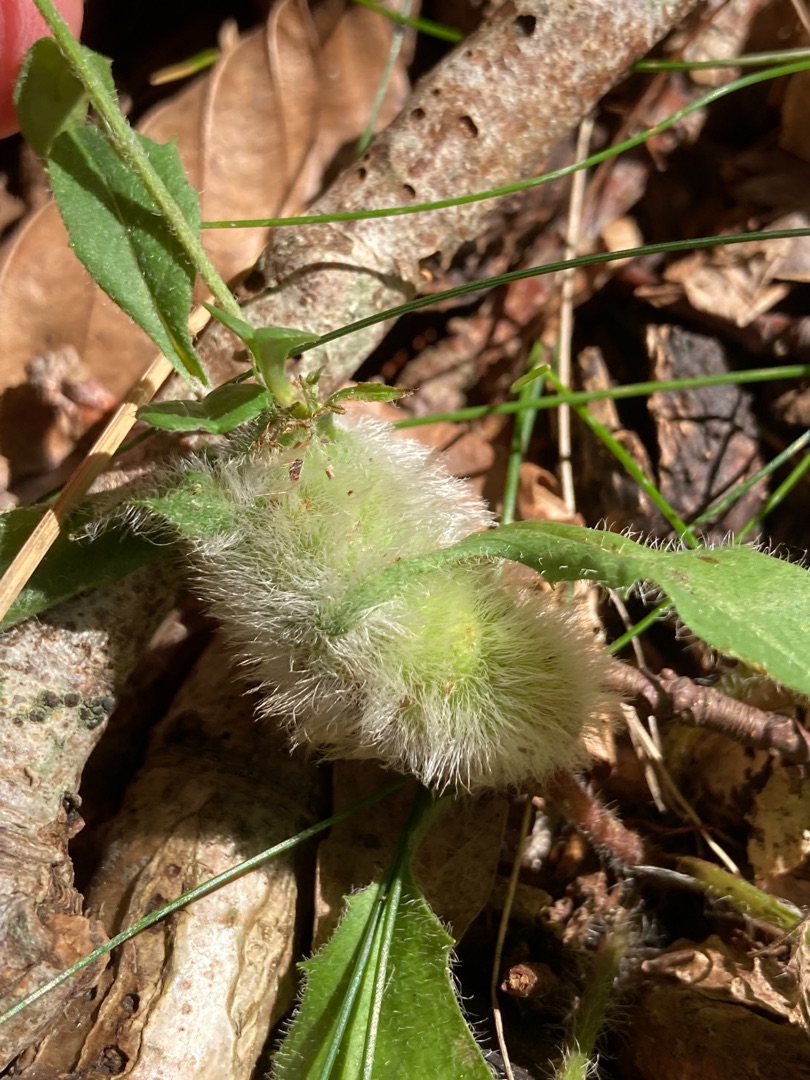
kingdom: Animalia
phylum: Arthropoda
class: Insecta
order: Hymenoptera
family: Cynipidae
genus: Aulacidea
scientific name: Aulacidea hieracii
